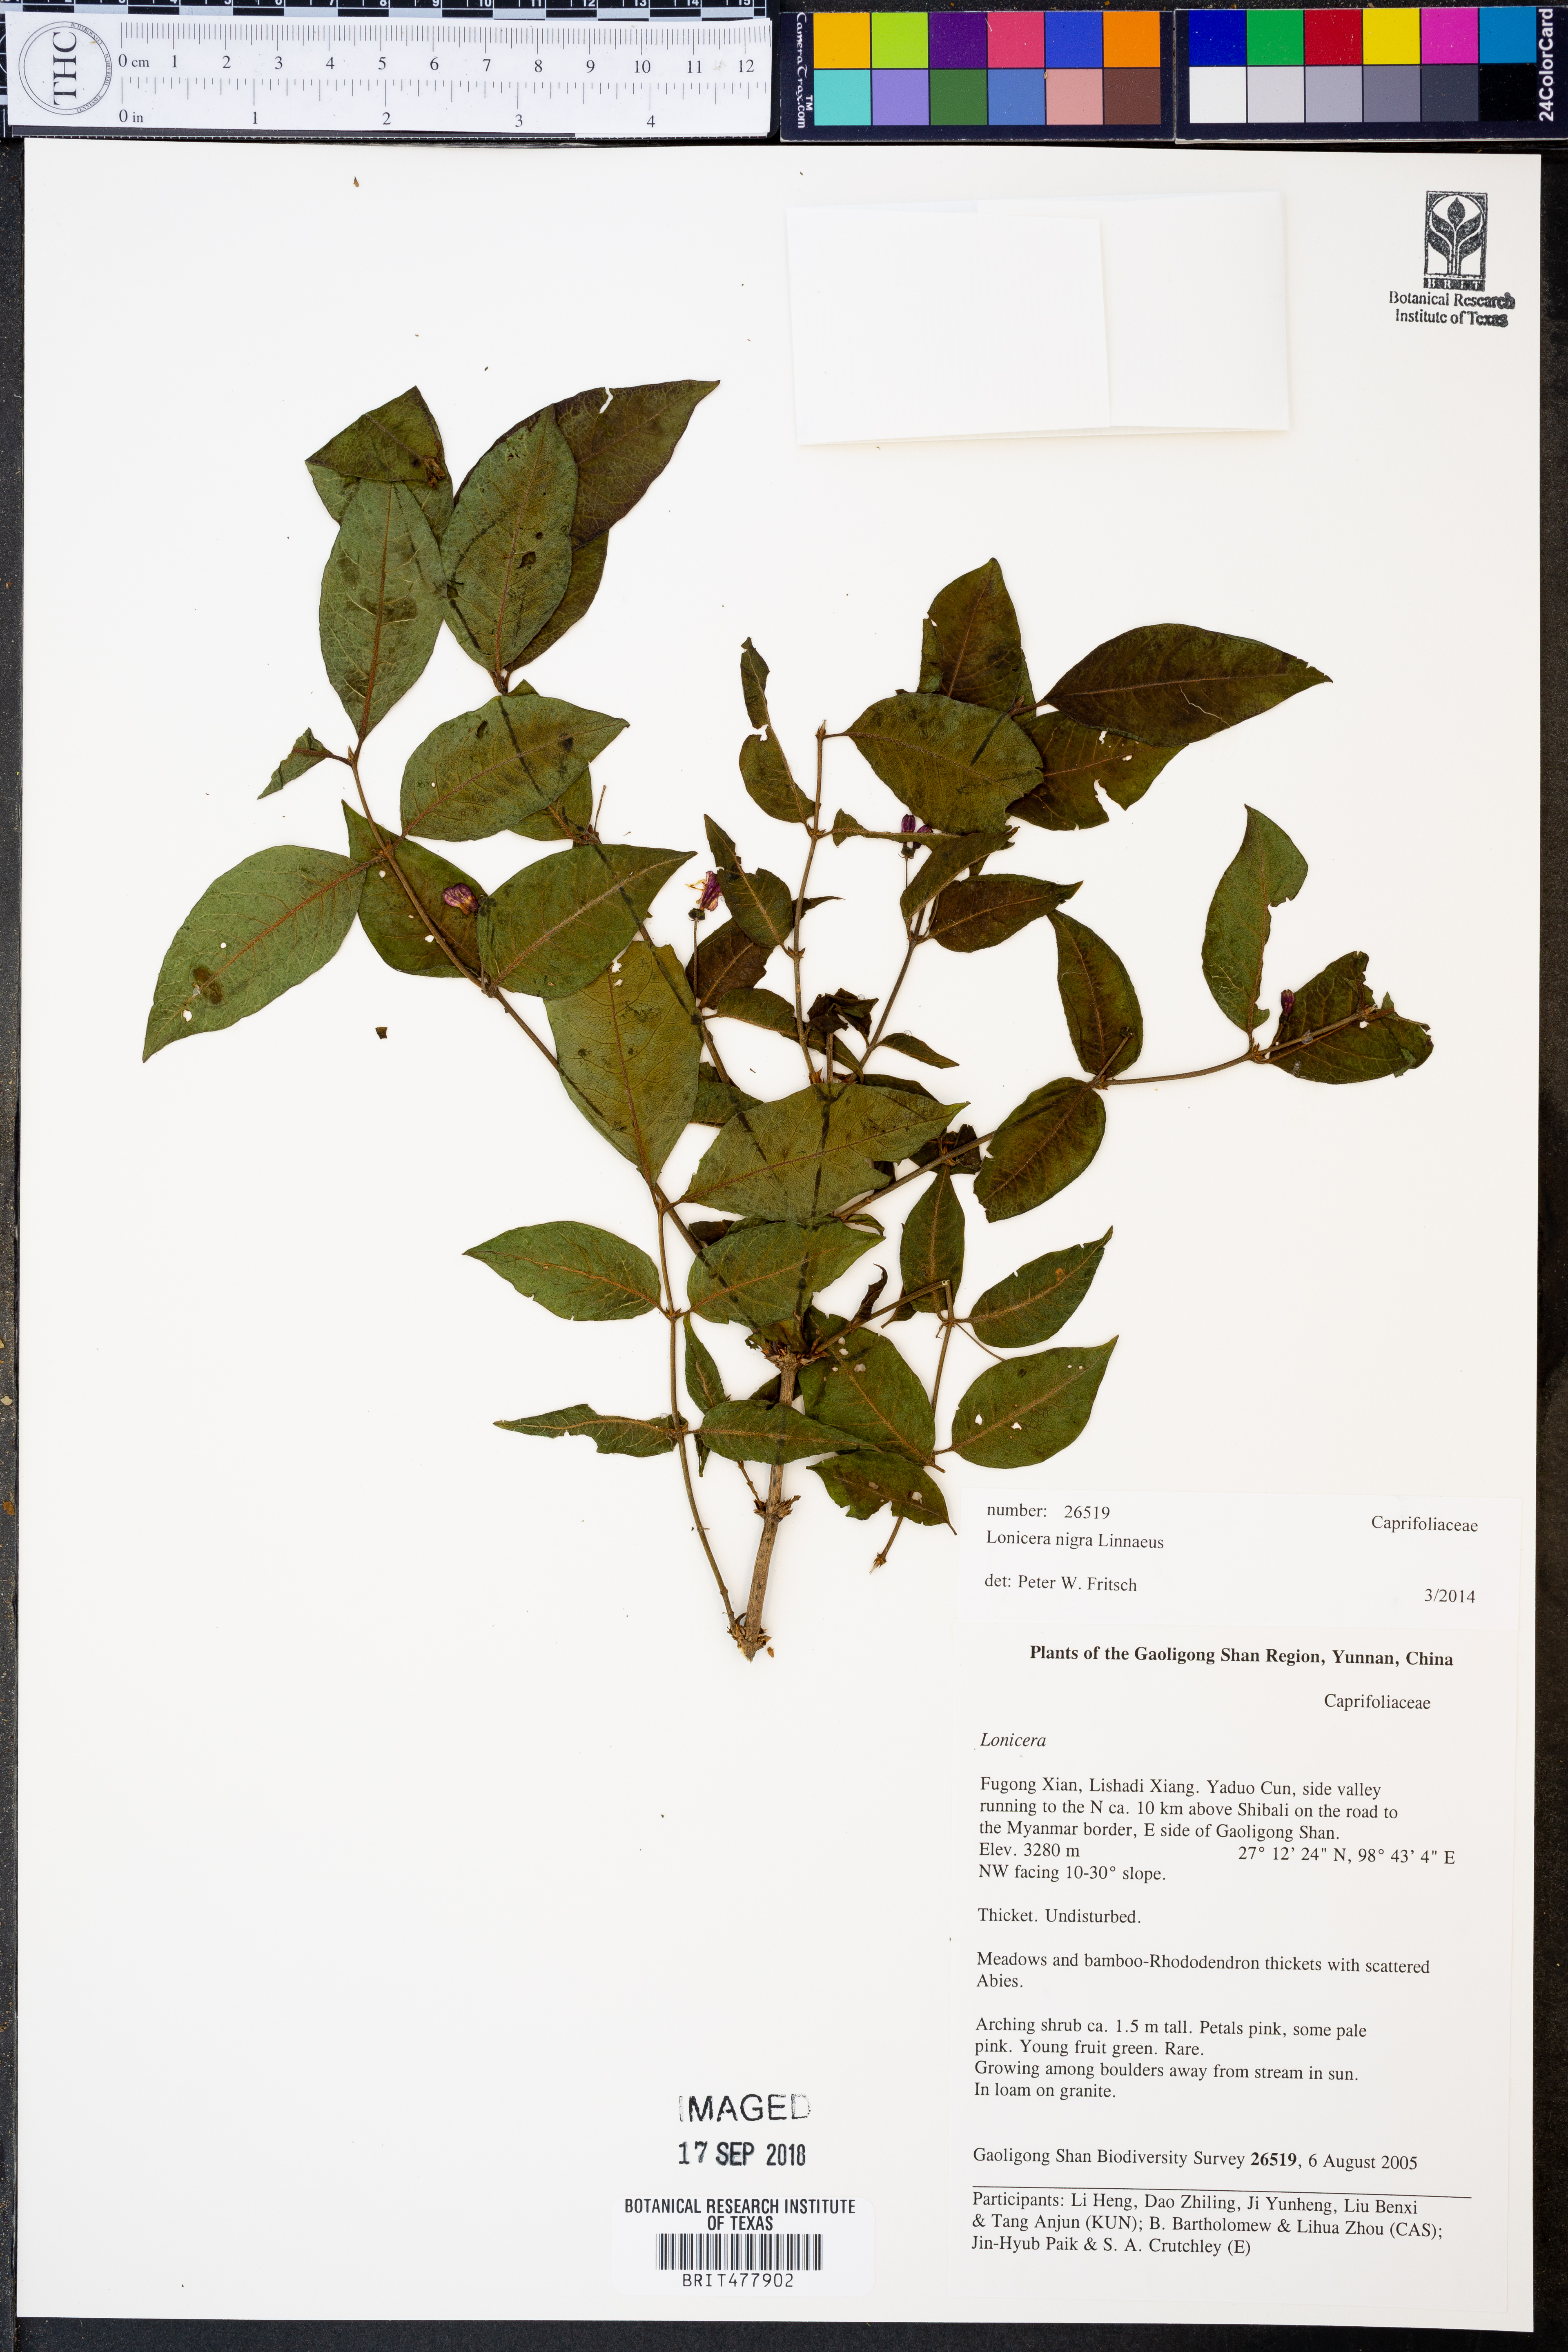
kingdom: Plantae
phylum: Tracheophyta
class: Magnoliopsida
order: Dipsacales
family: Caprifoliaceae
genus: Lonicera
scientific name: Lonicera nigra
